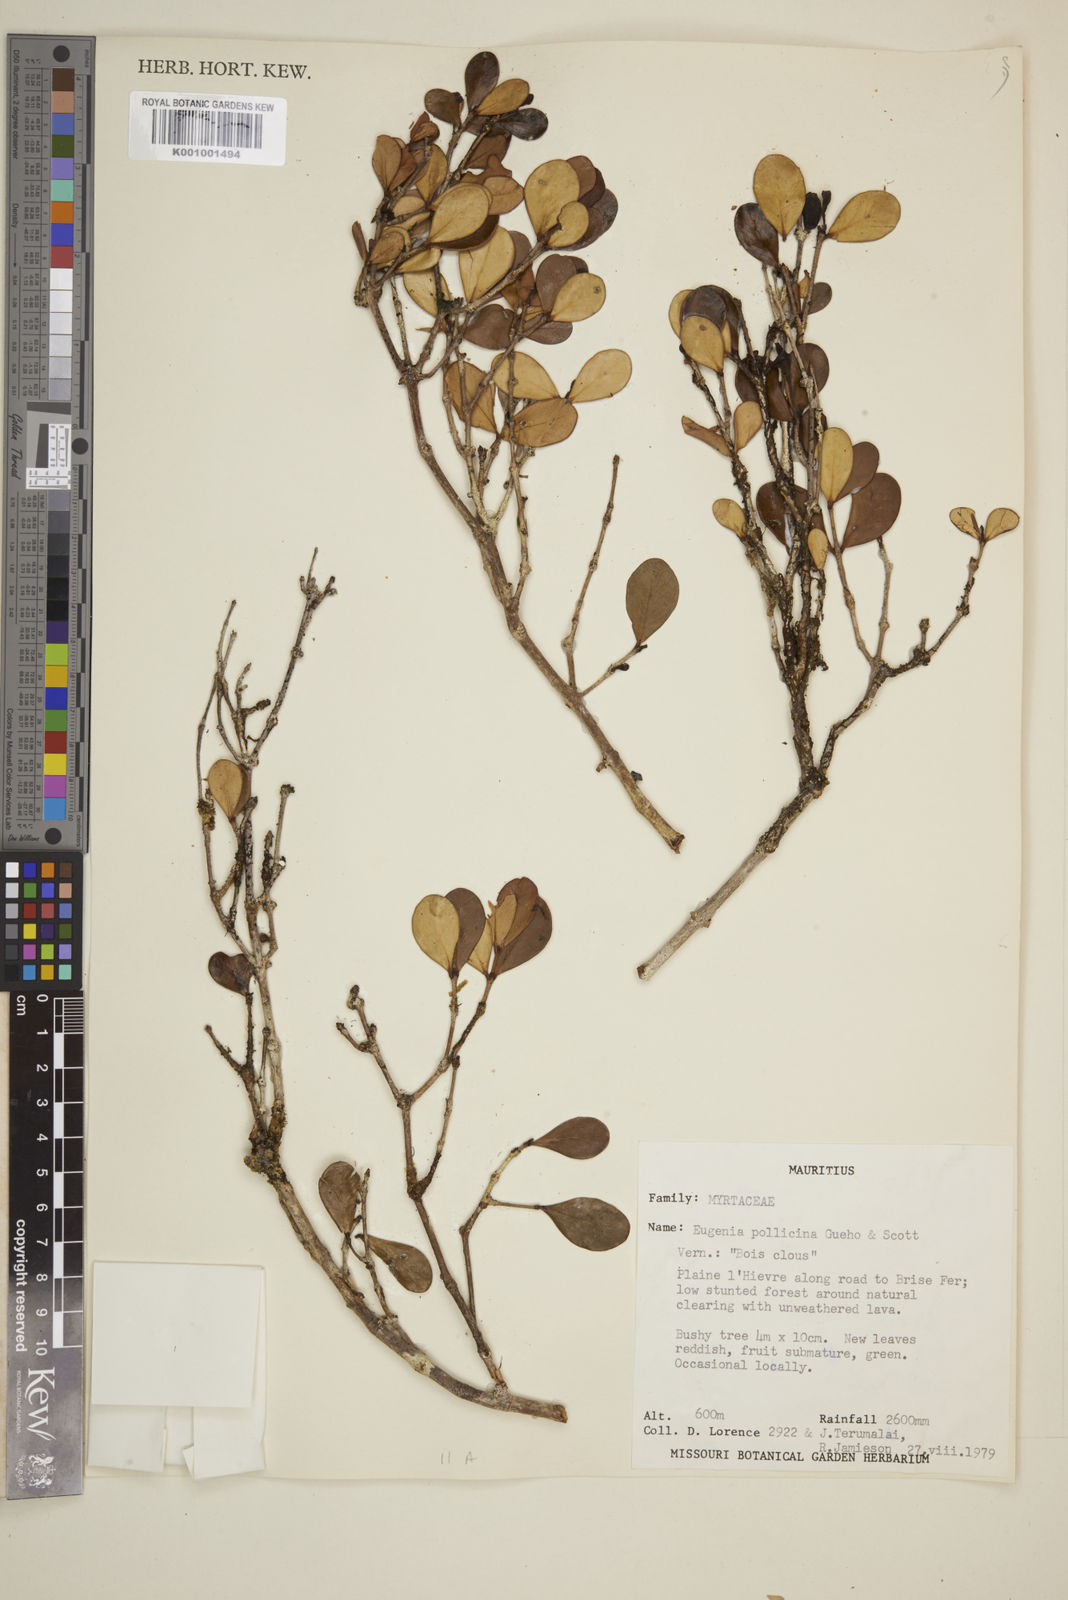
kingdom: Plantae
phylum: Tracheophyta
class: Magnoliopsida
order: Myrtales
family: Myrtaceae
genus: Eugenia
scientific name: Eugenia
